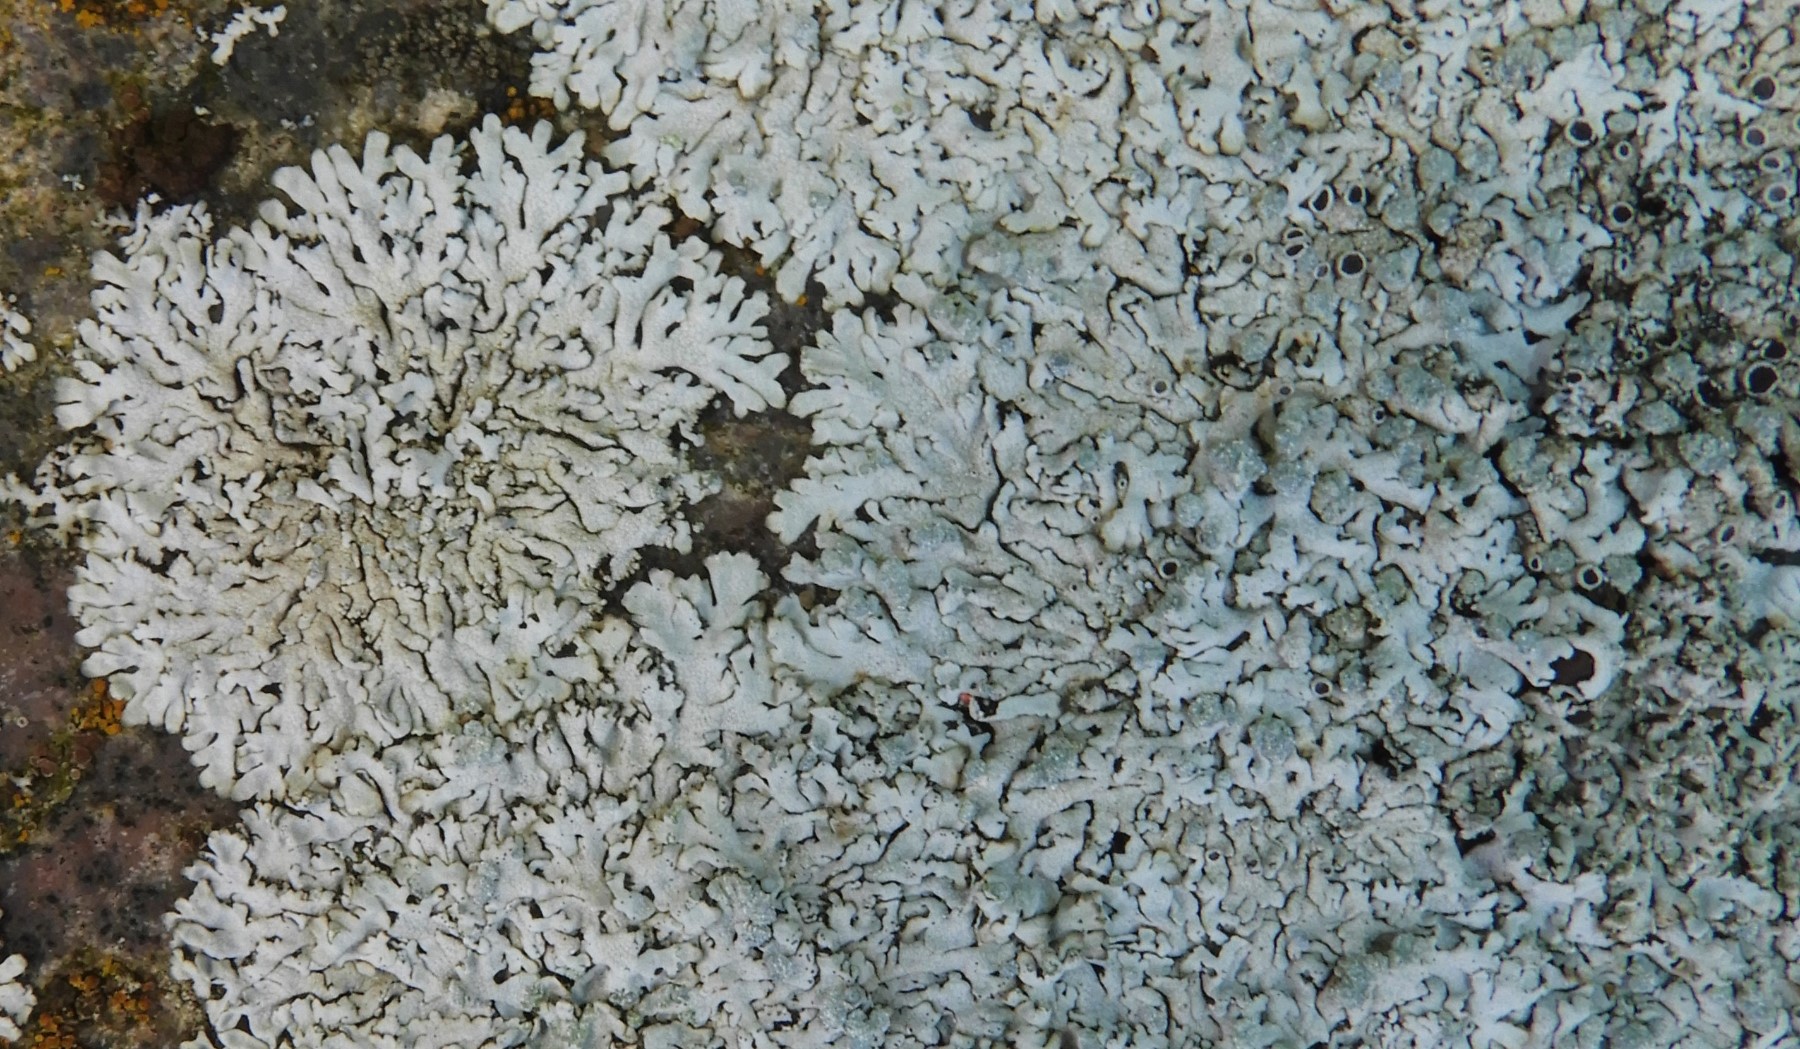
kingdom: Fungi
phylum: Ascomycota
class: Lecanoromycetes
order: Caliciales
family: Physciaceae
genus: Physcia
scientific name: Physcia caesia
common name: blågrå rosetlav
